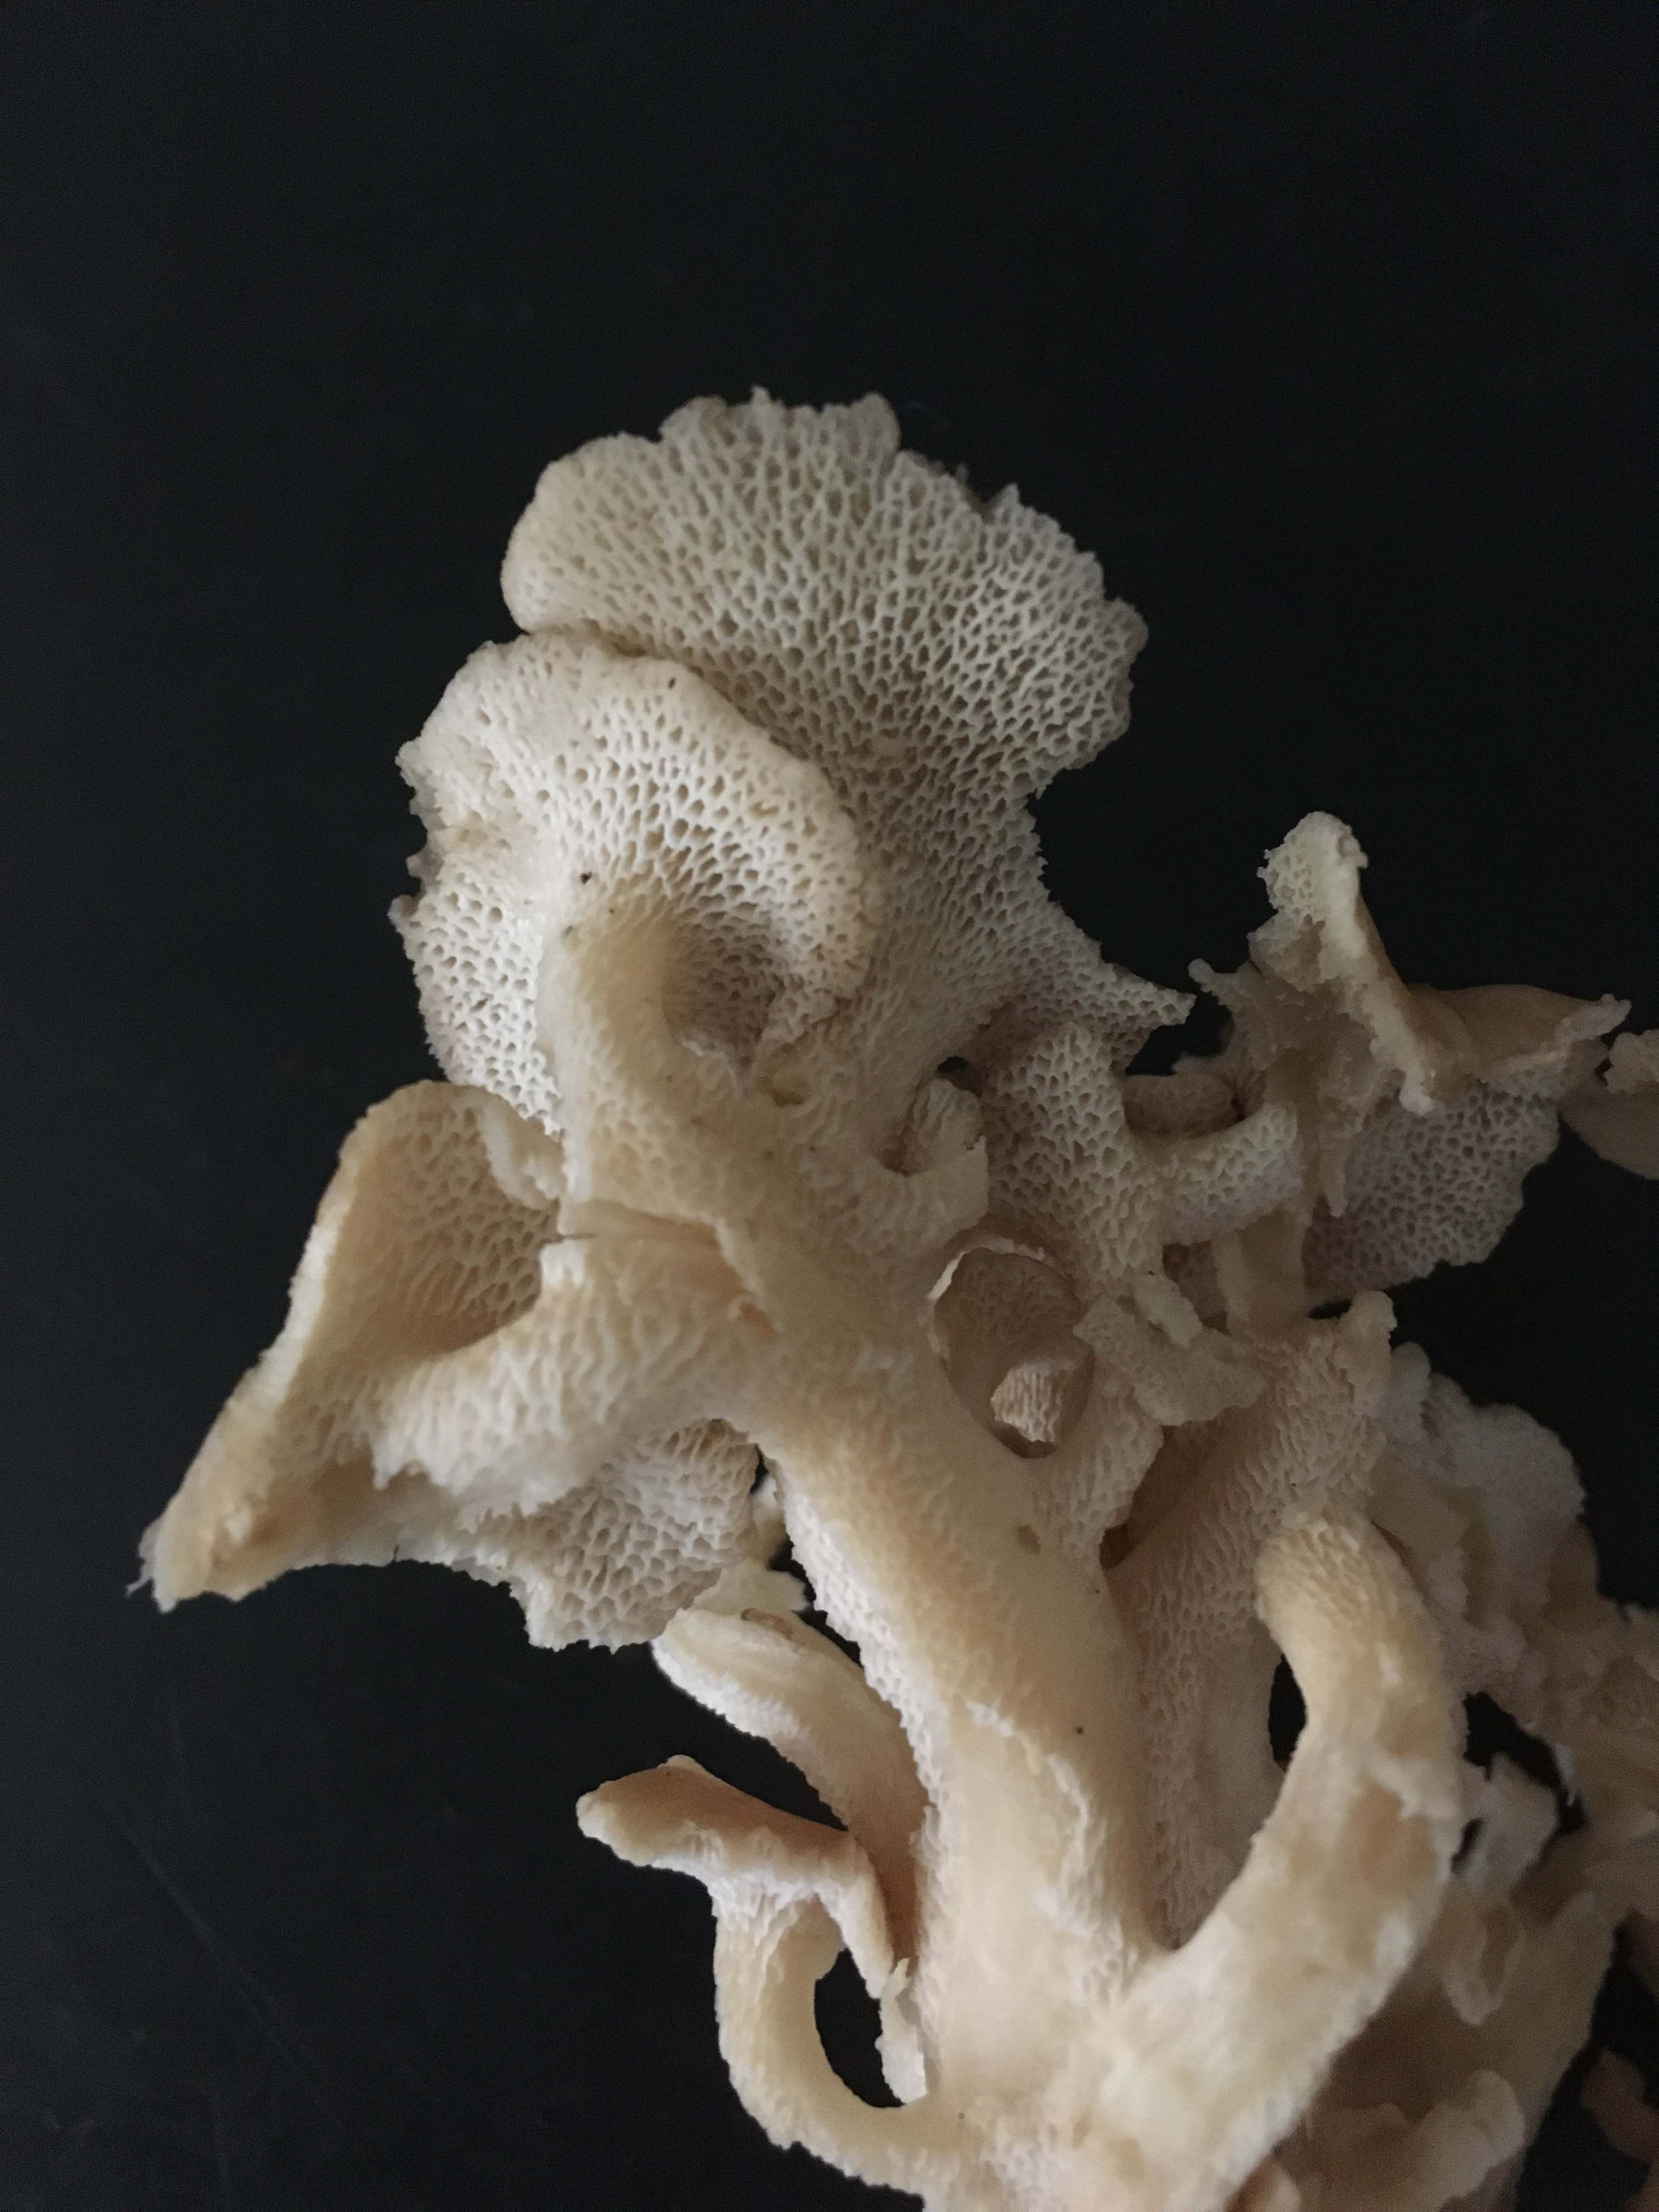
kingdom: Fungi
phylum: Basidiomycota
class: Agaricomycetes
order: Polyporales
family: Polyporaceae
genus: Polyporus
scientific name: Polyporus umbellatus
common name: skærmformet stilkporesvamp
